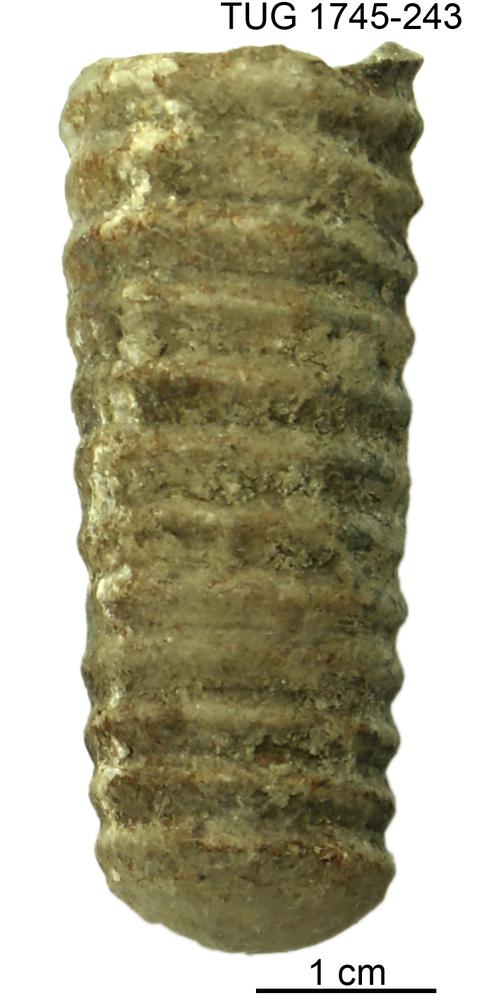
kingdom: Animalia
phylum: Mollusca
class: Cephalopoda
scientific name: Cephalopoda
